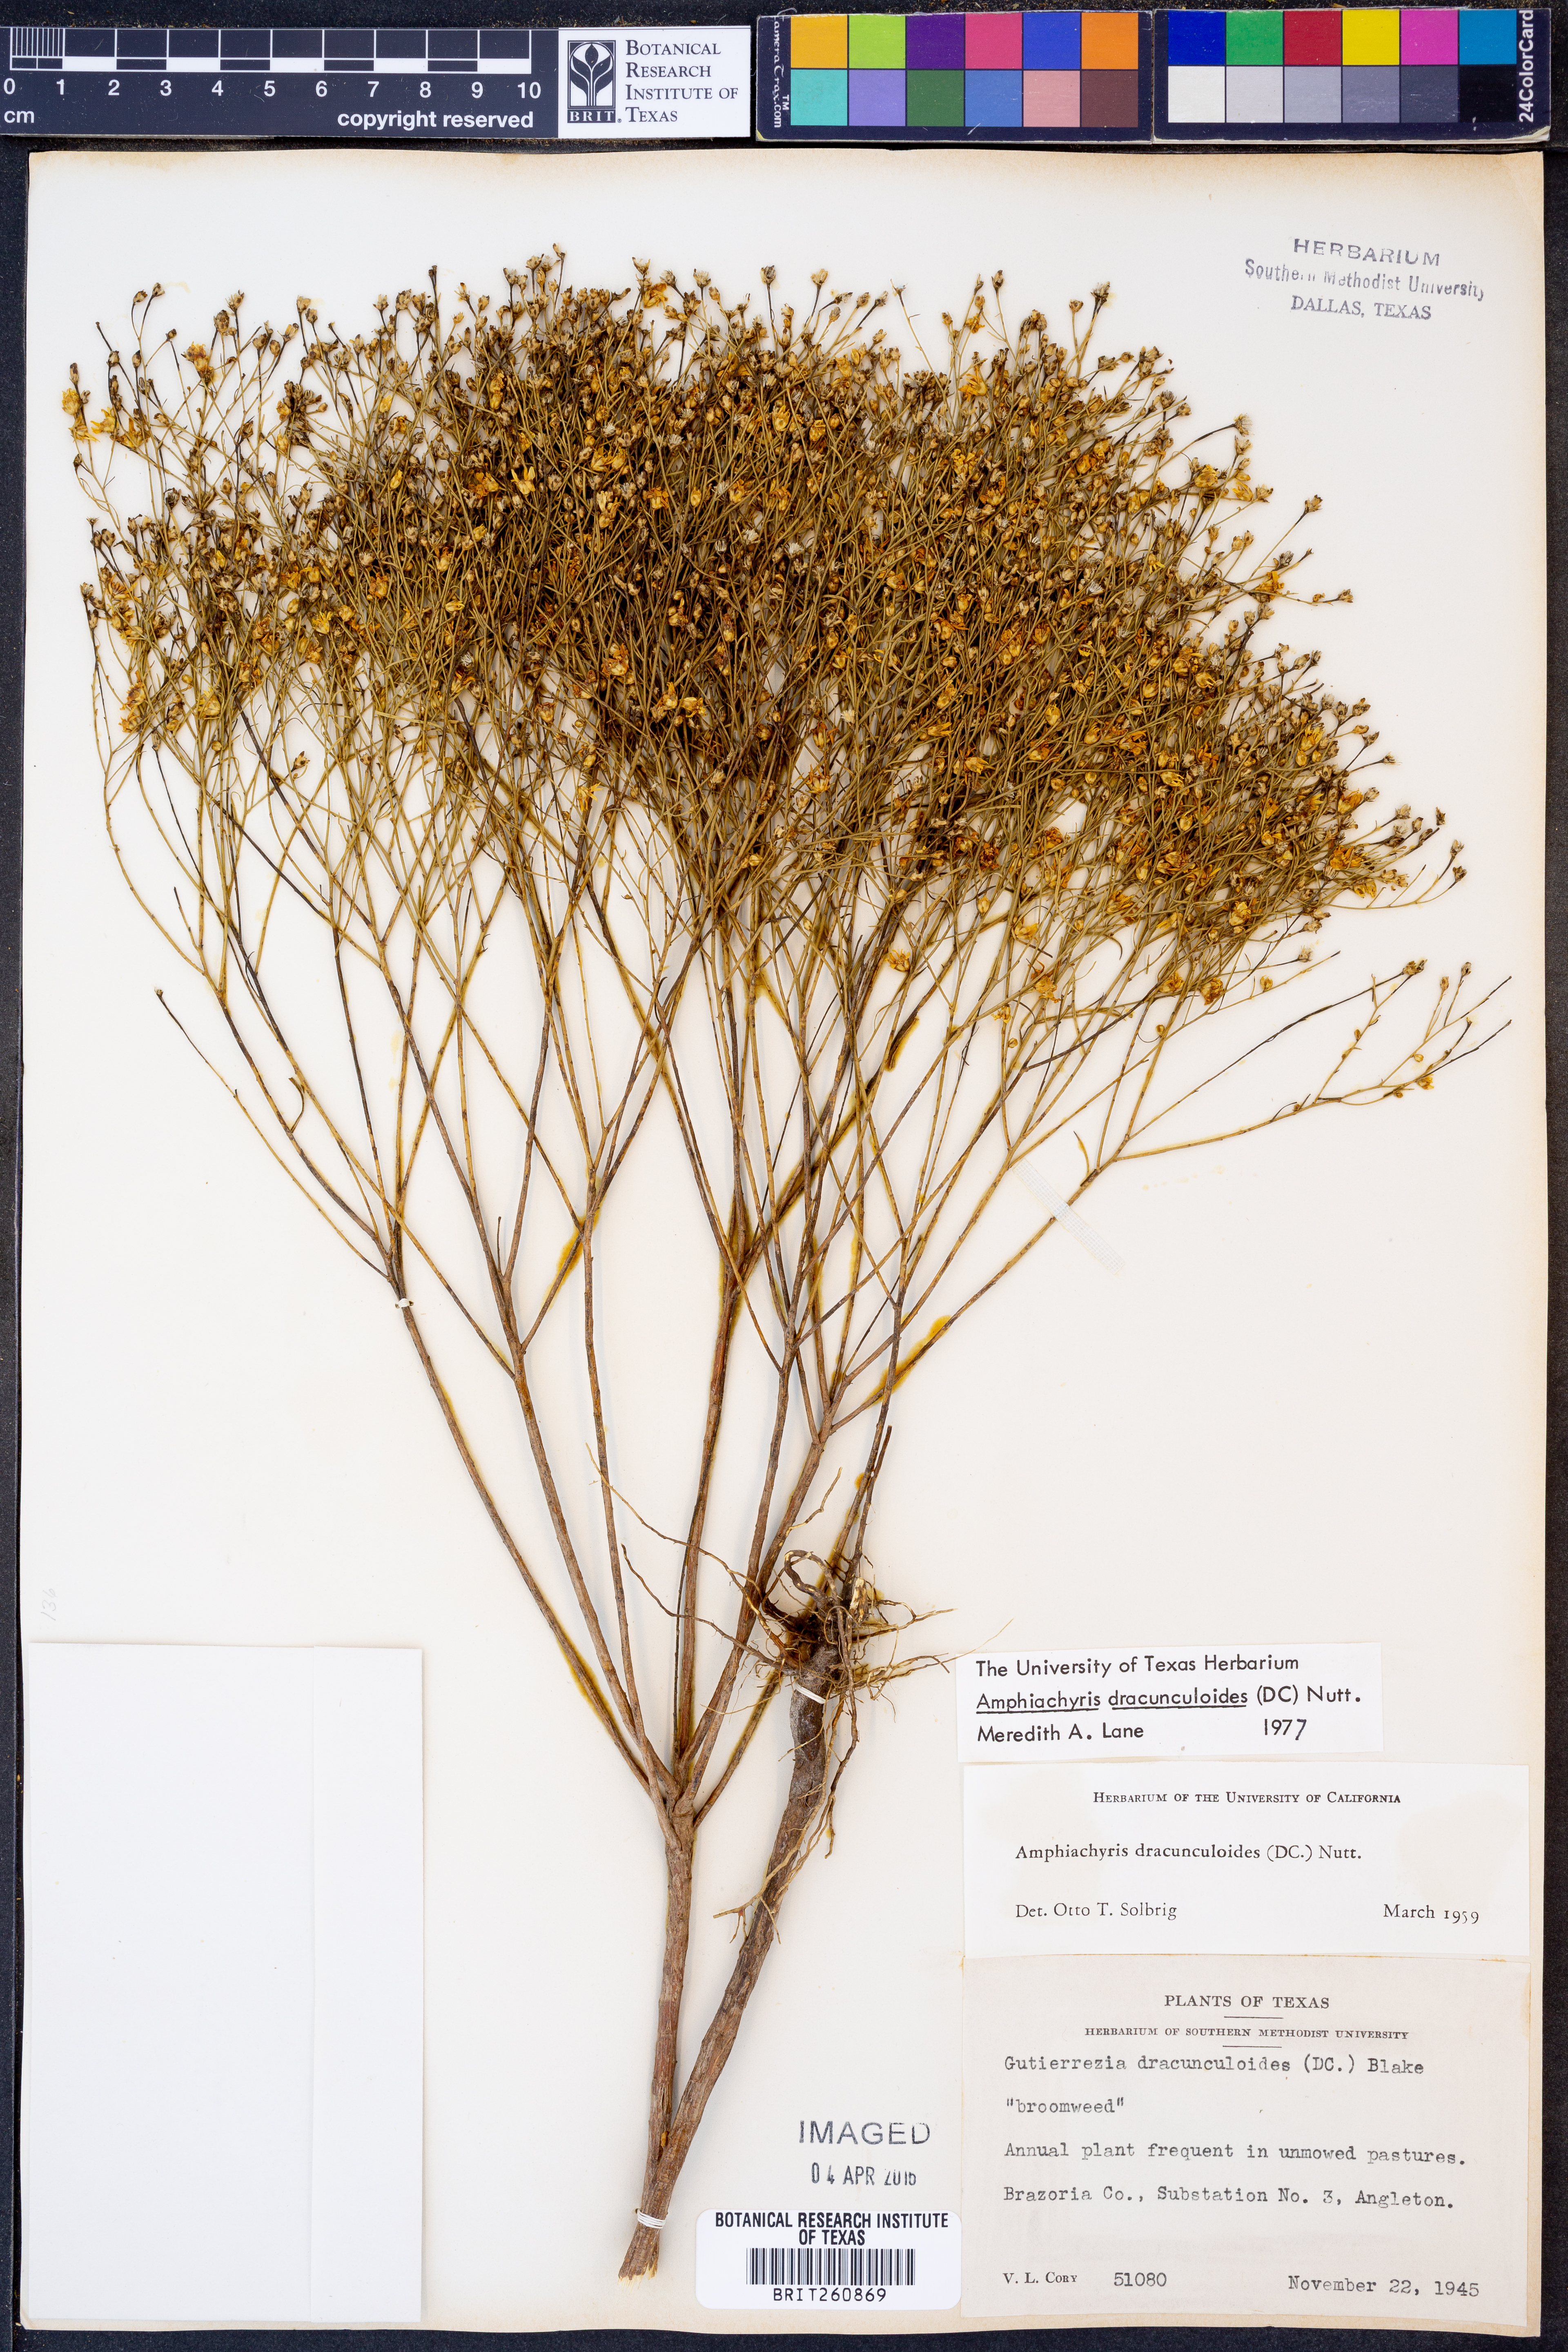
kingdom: Plantae
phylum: Tracheophyta
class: Magnoliopsida
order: Asterales
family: Asteraceae
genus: Amphiachyris
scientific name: Amphiachyris dracunculoides
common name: Broomweed
